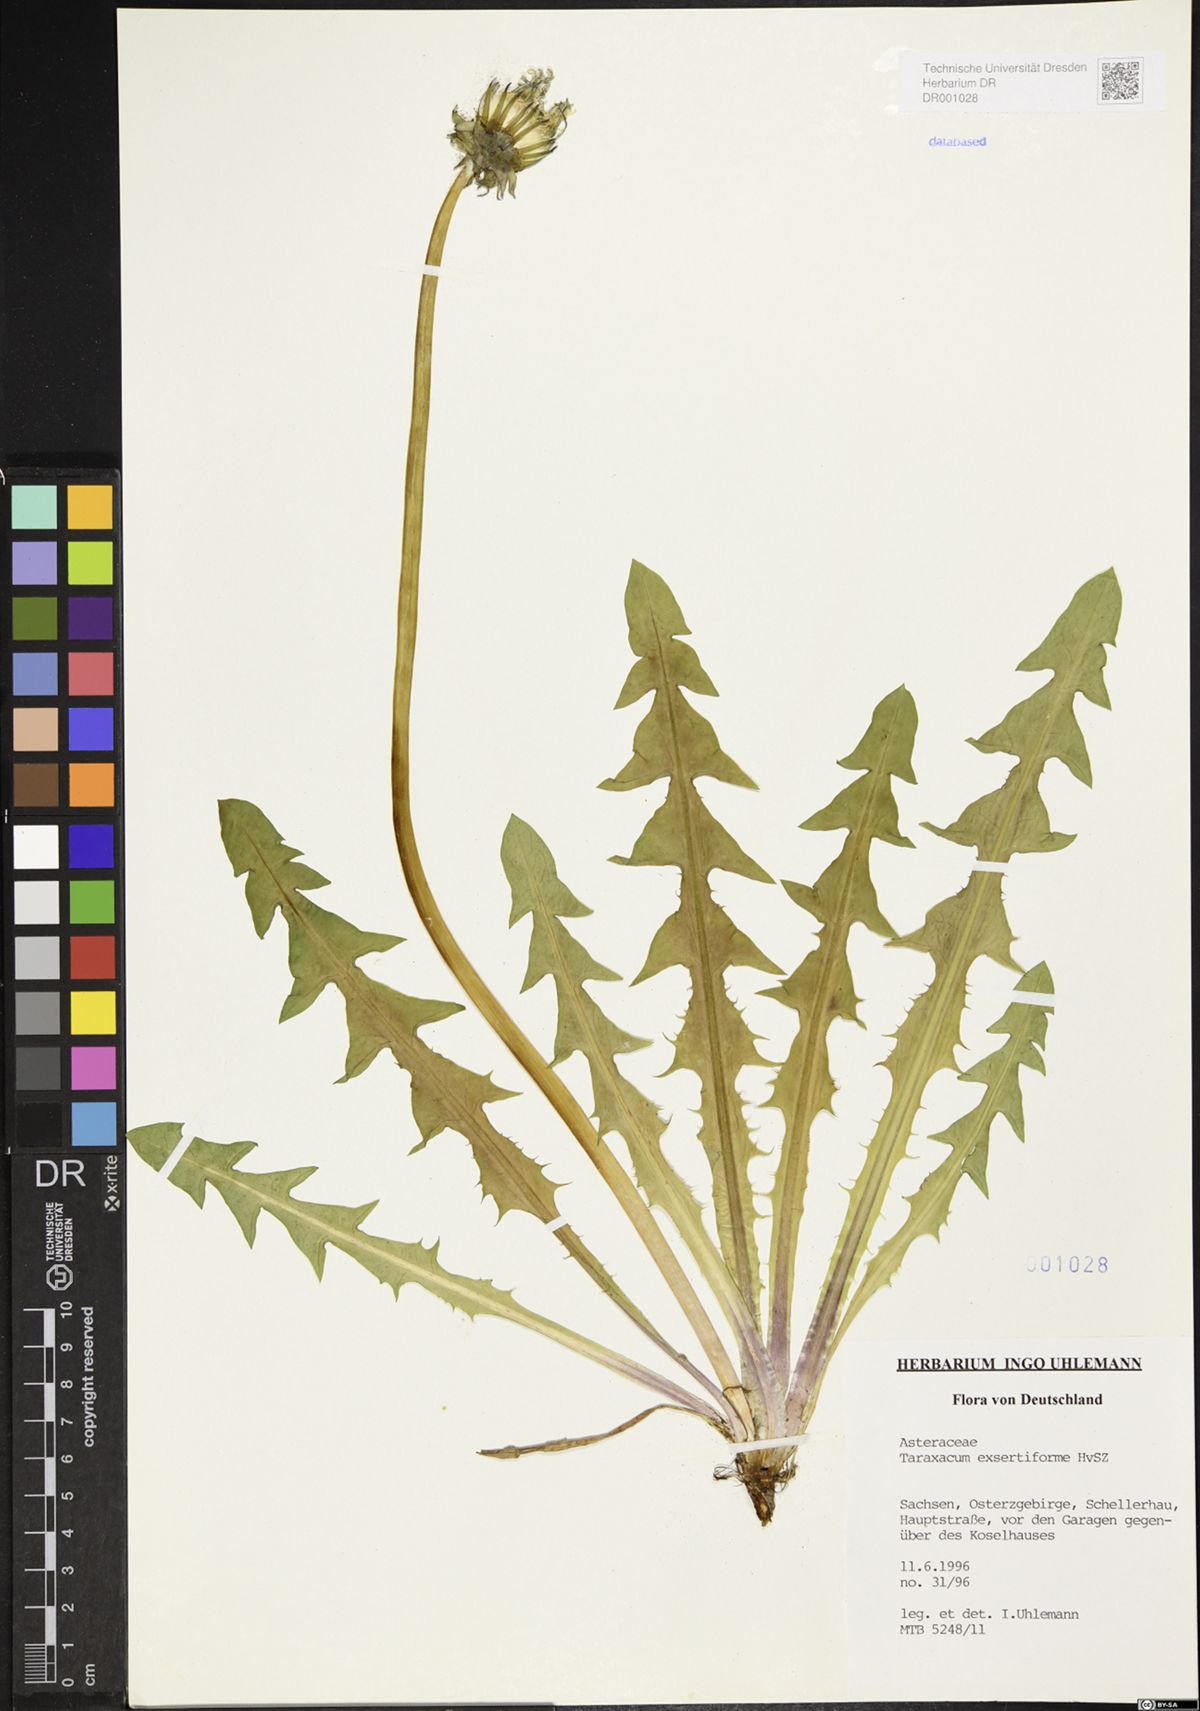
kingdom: Plantae
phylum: Tracheophyta
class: Magnoliopsida
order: Asterales
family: Asteraceae
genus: Taraxacum
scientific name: Taraxacum exsertiforme
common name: Erect-bracted dandelion
